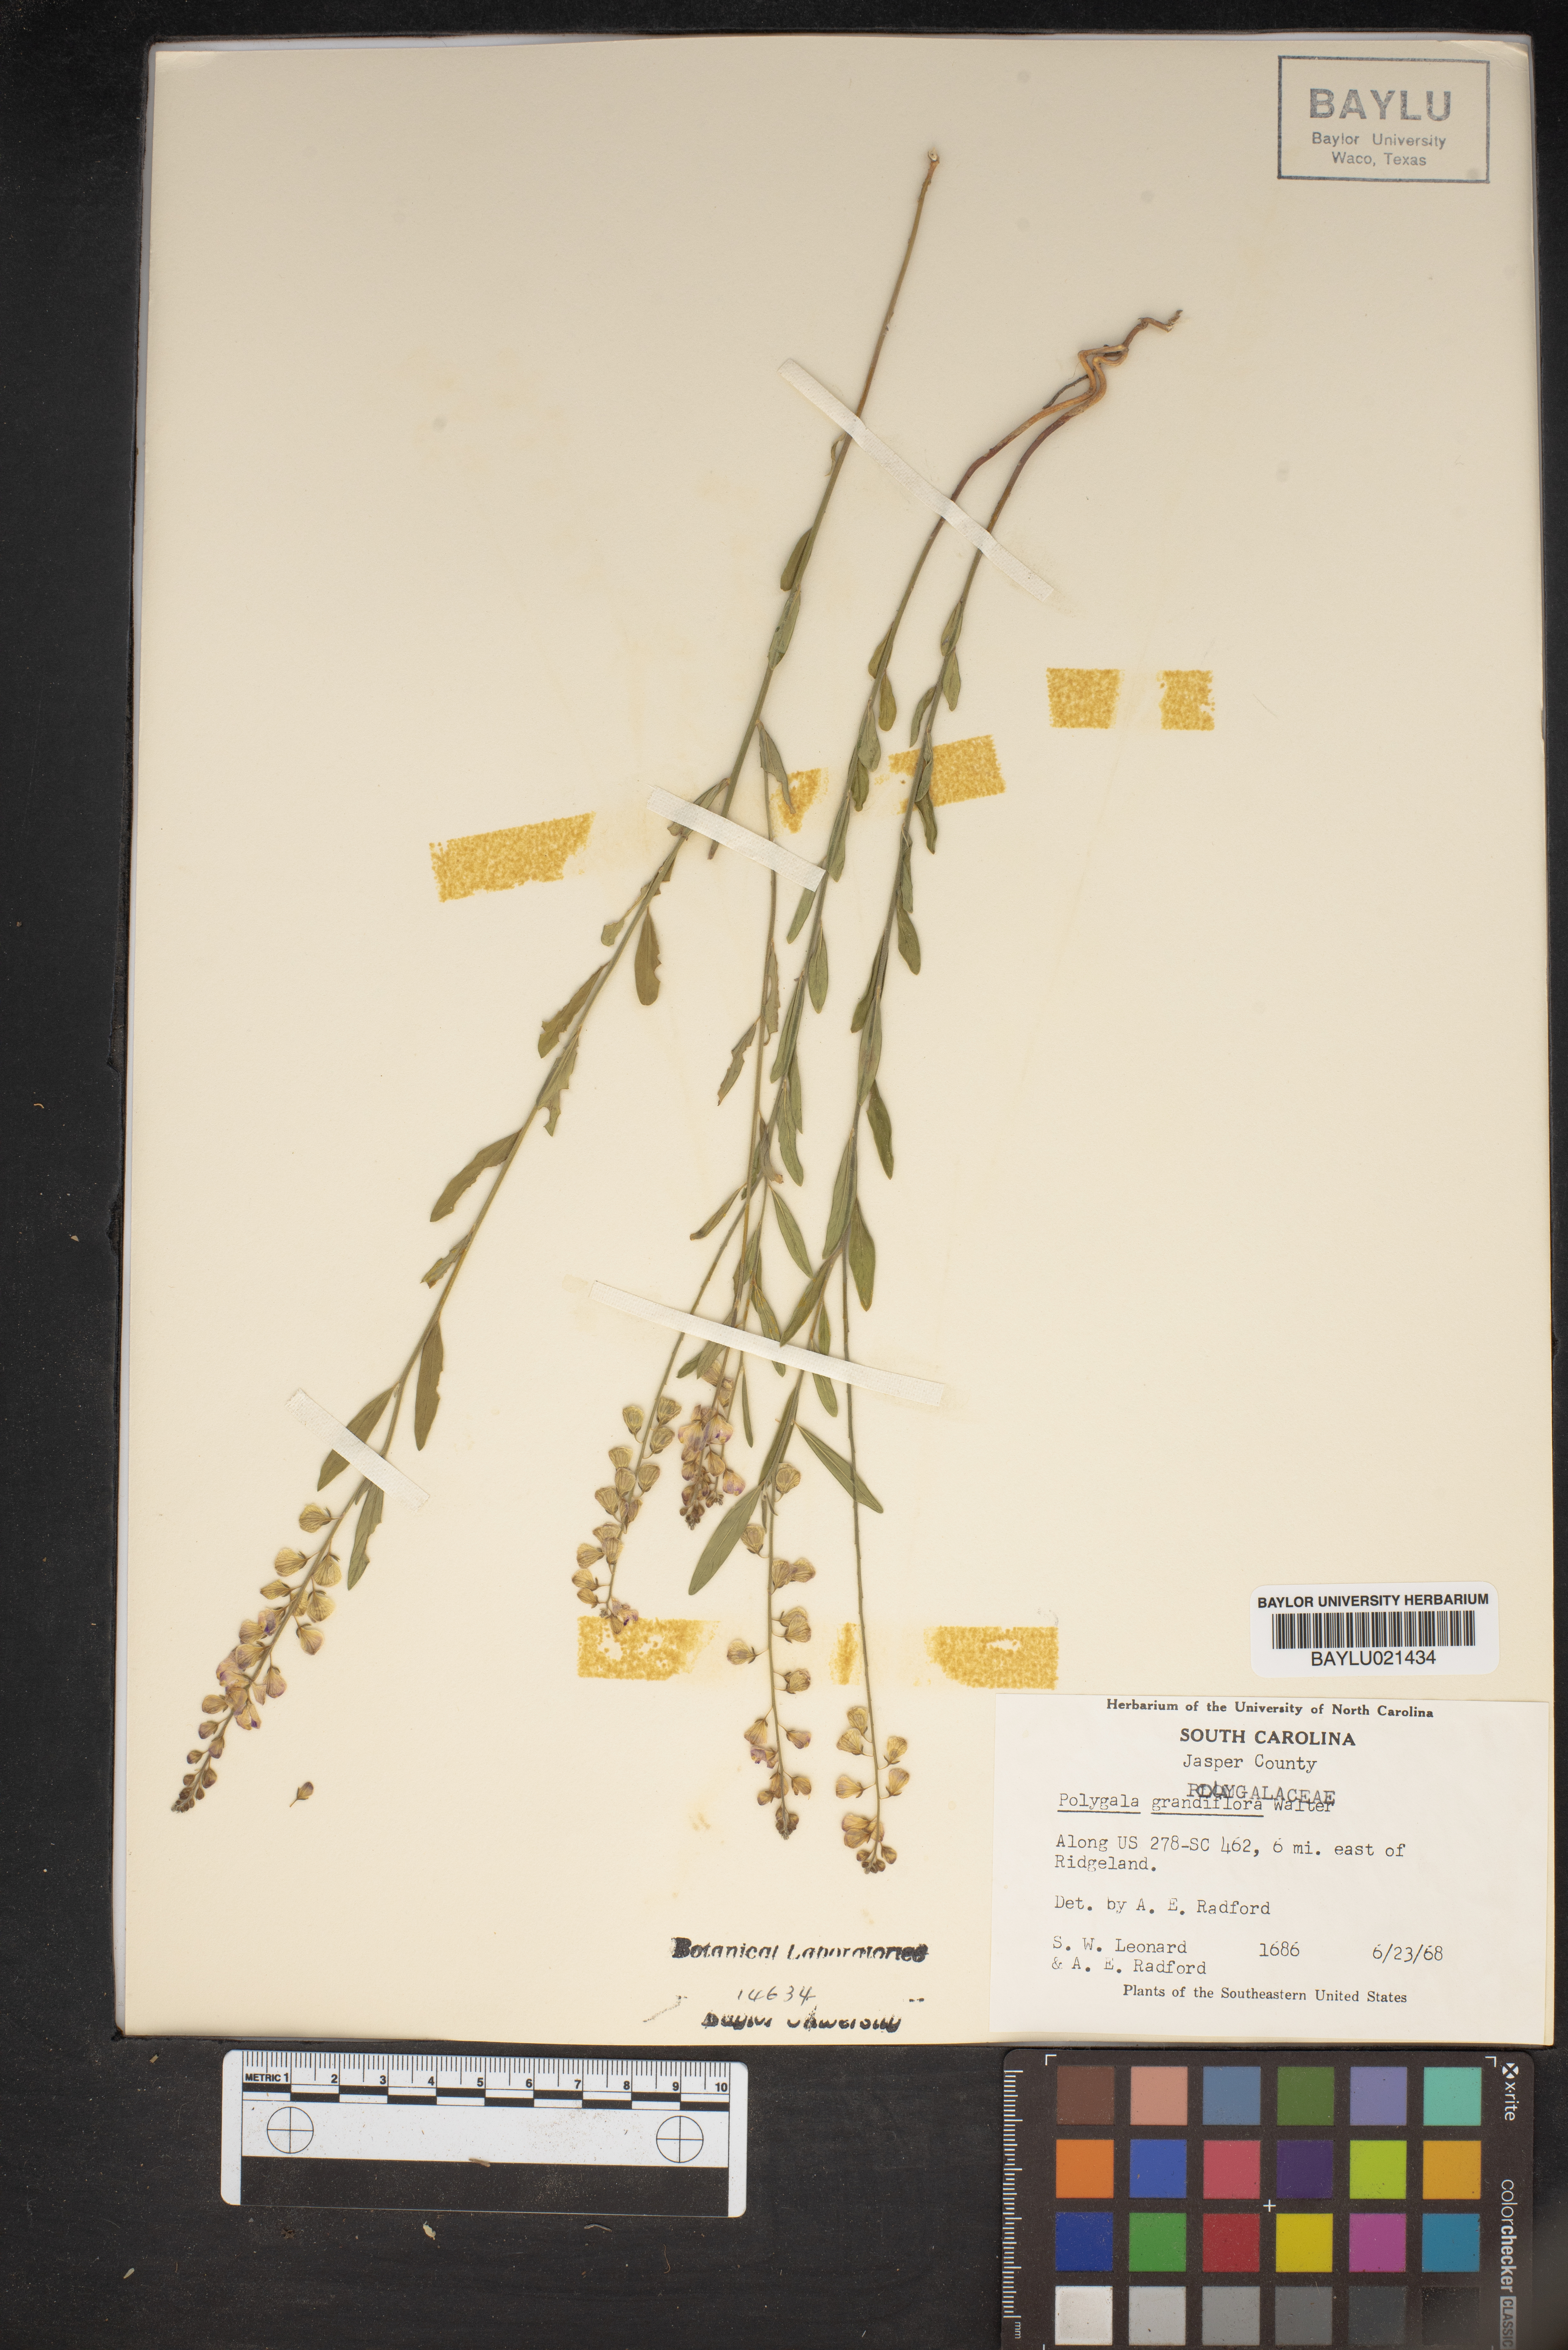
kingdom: Plantae
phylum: Tracheophyta
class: Magnoliopsida
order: Fabales
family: Polygalaceae
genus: Asemeia
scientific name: Asemeia grandiflora
